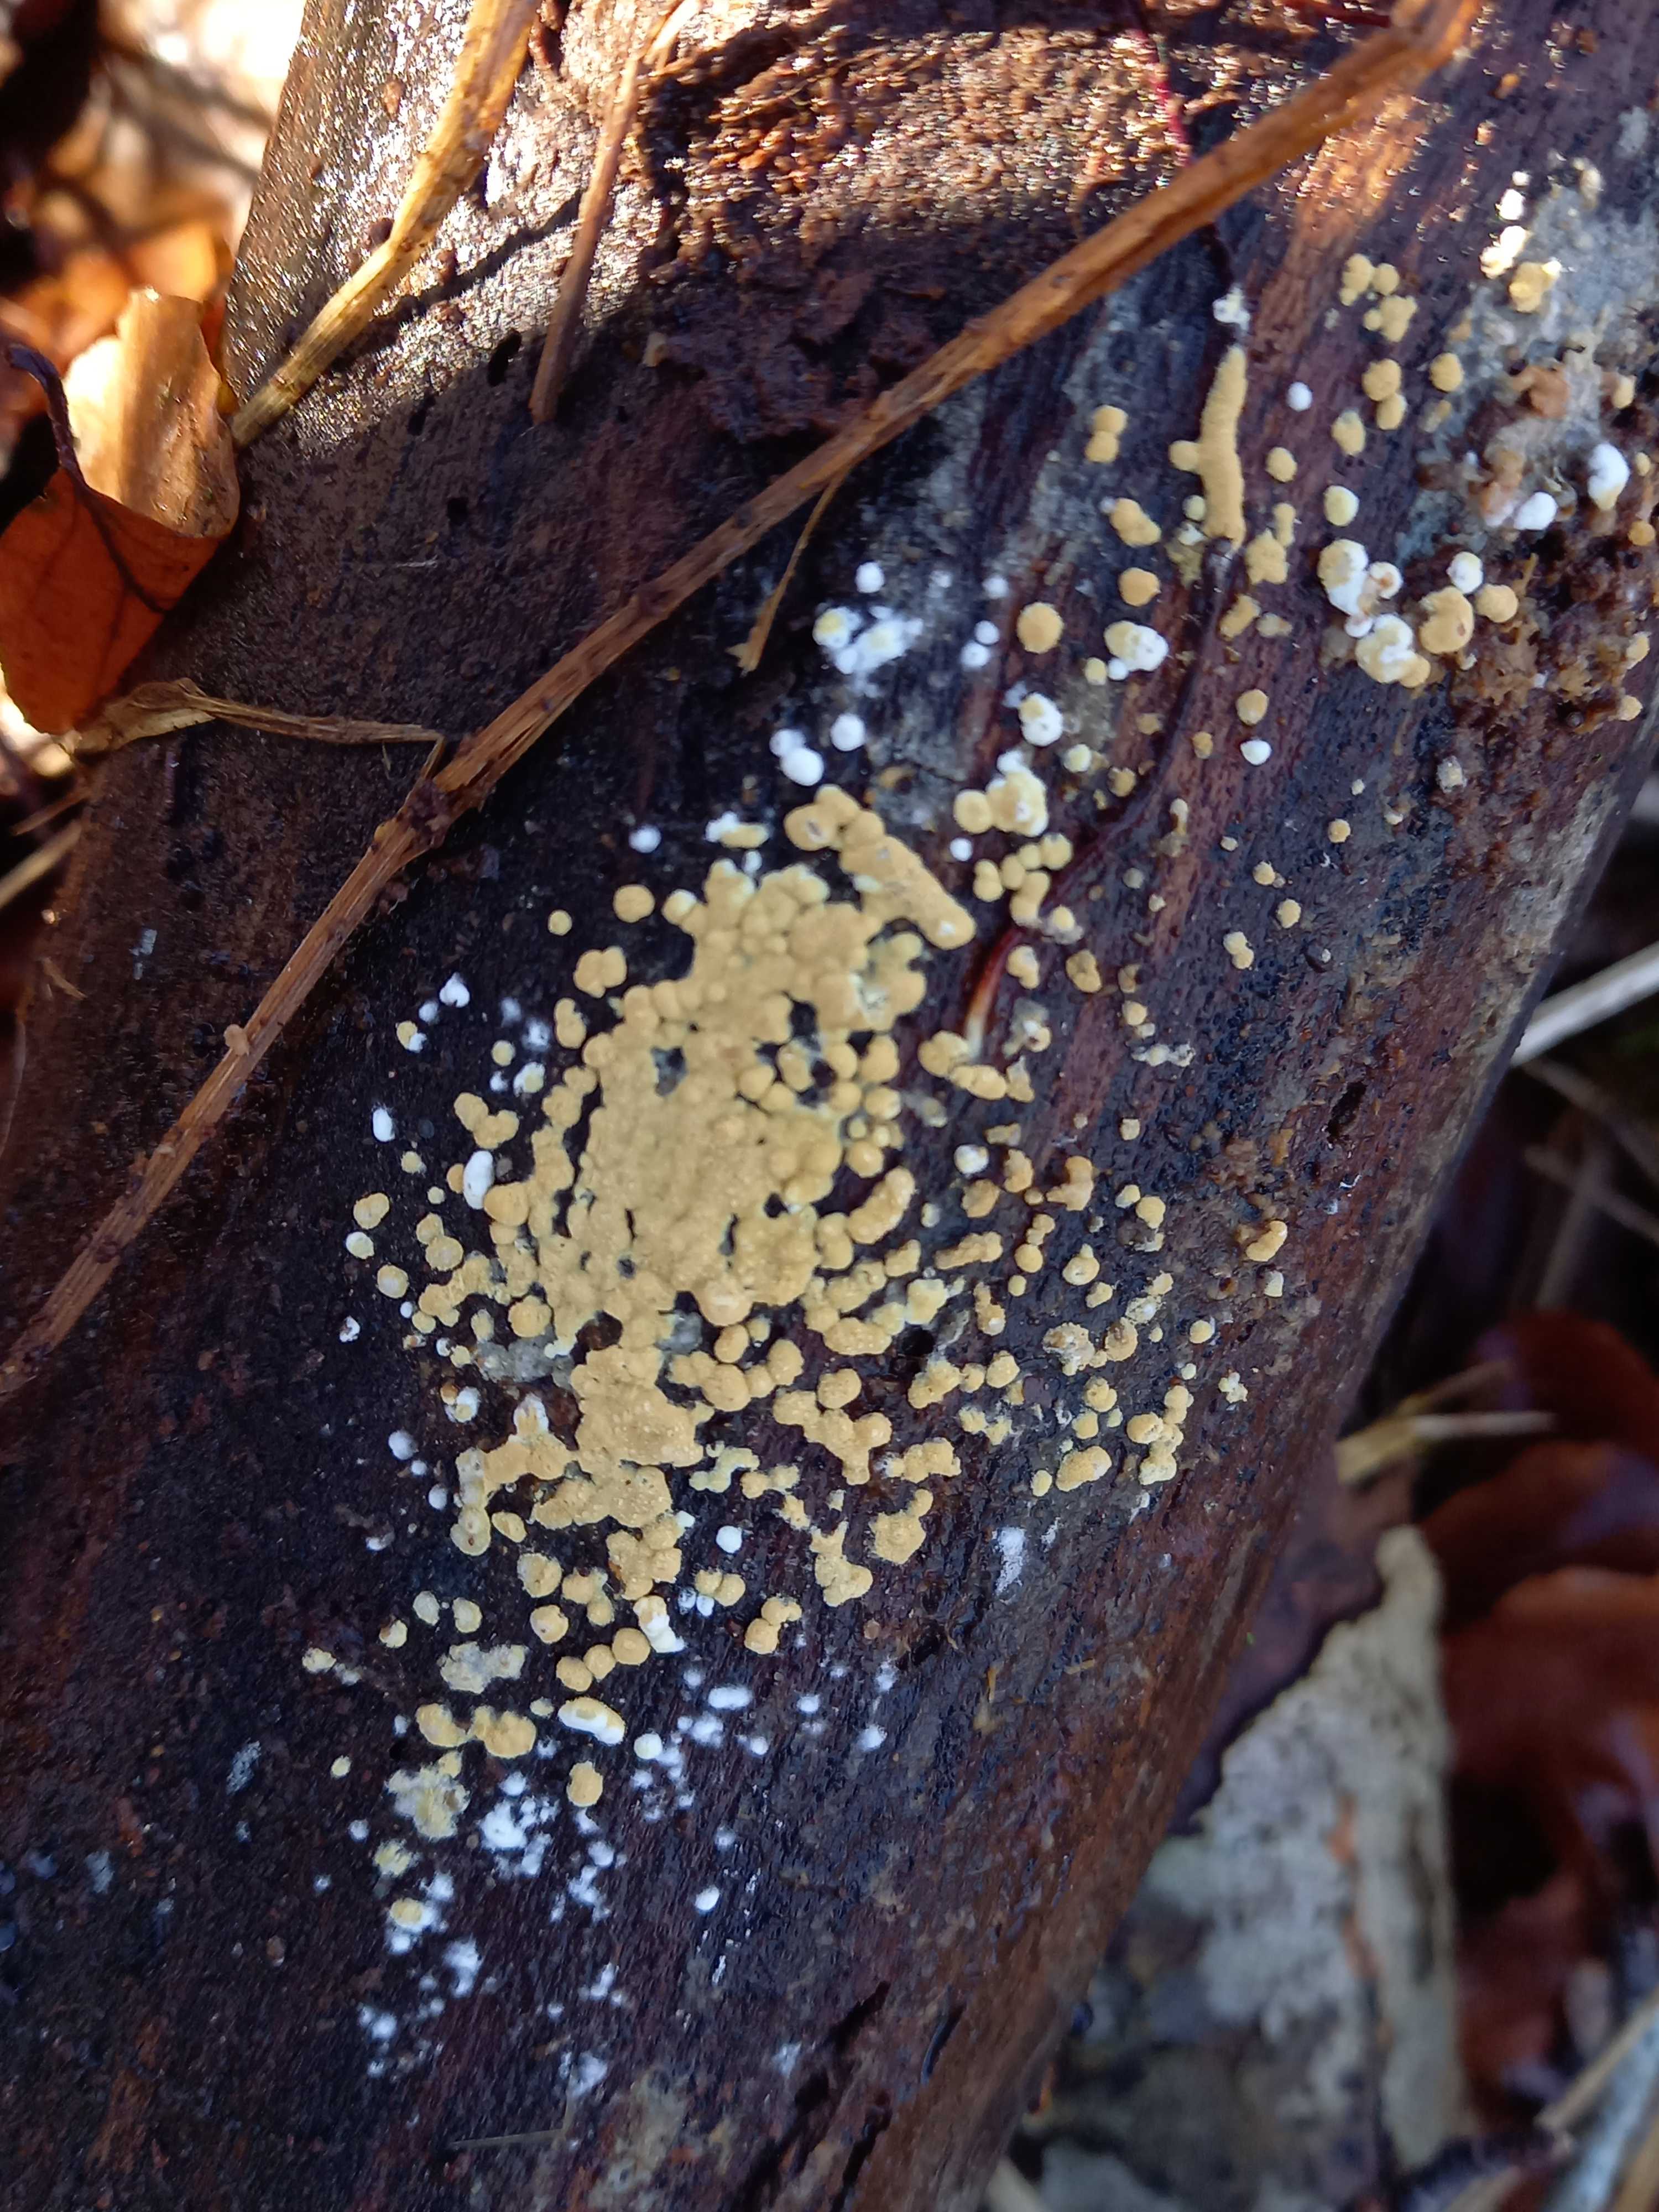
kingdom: Fungi
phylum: Basidiomycota
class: Agaricomycetes
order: Cantharellales
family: Botryobasidiaceae
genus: Botryobasidium
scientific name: Botryobasidium aureum
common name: gylden spindhinde
